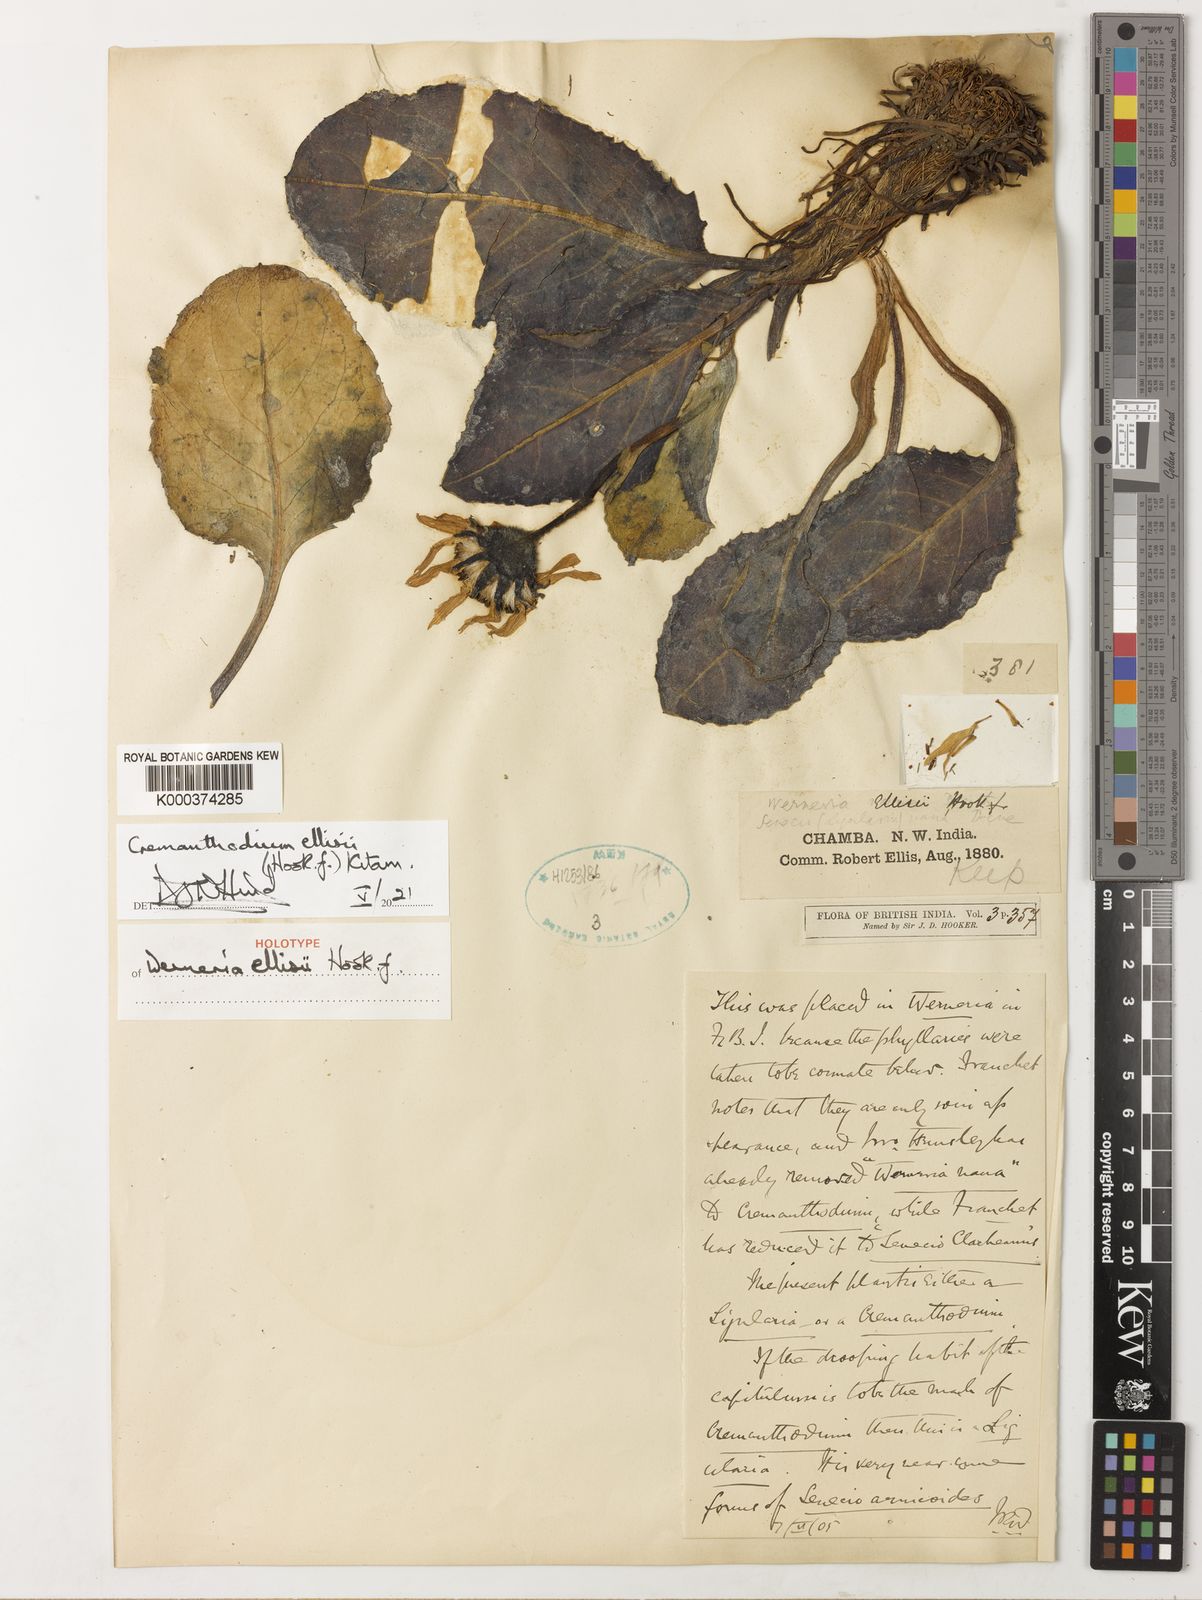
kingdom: Plantae
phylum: Tracheophyta
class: Magnoliopsida
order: Asterales
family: Asteraceae
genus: Cremanthodium
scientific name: Cremanthodium ellisii
